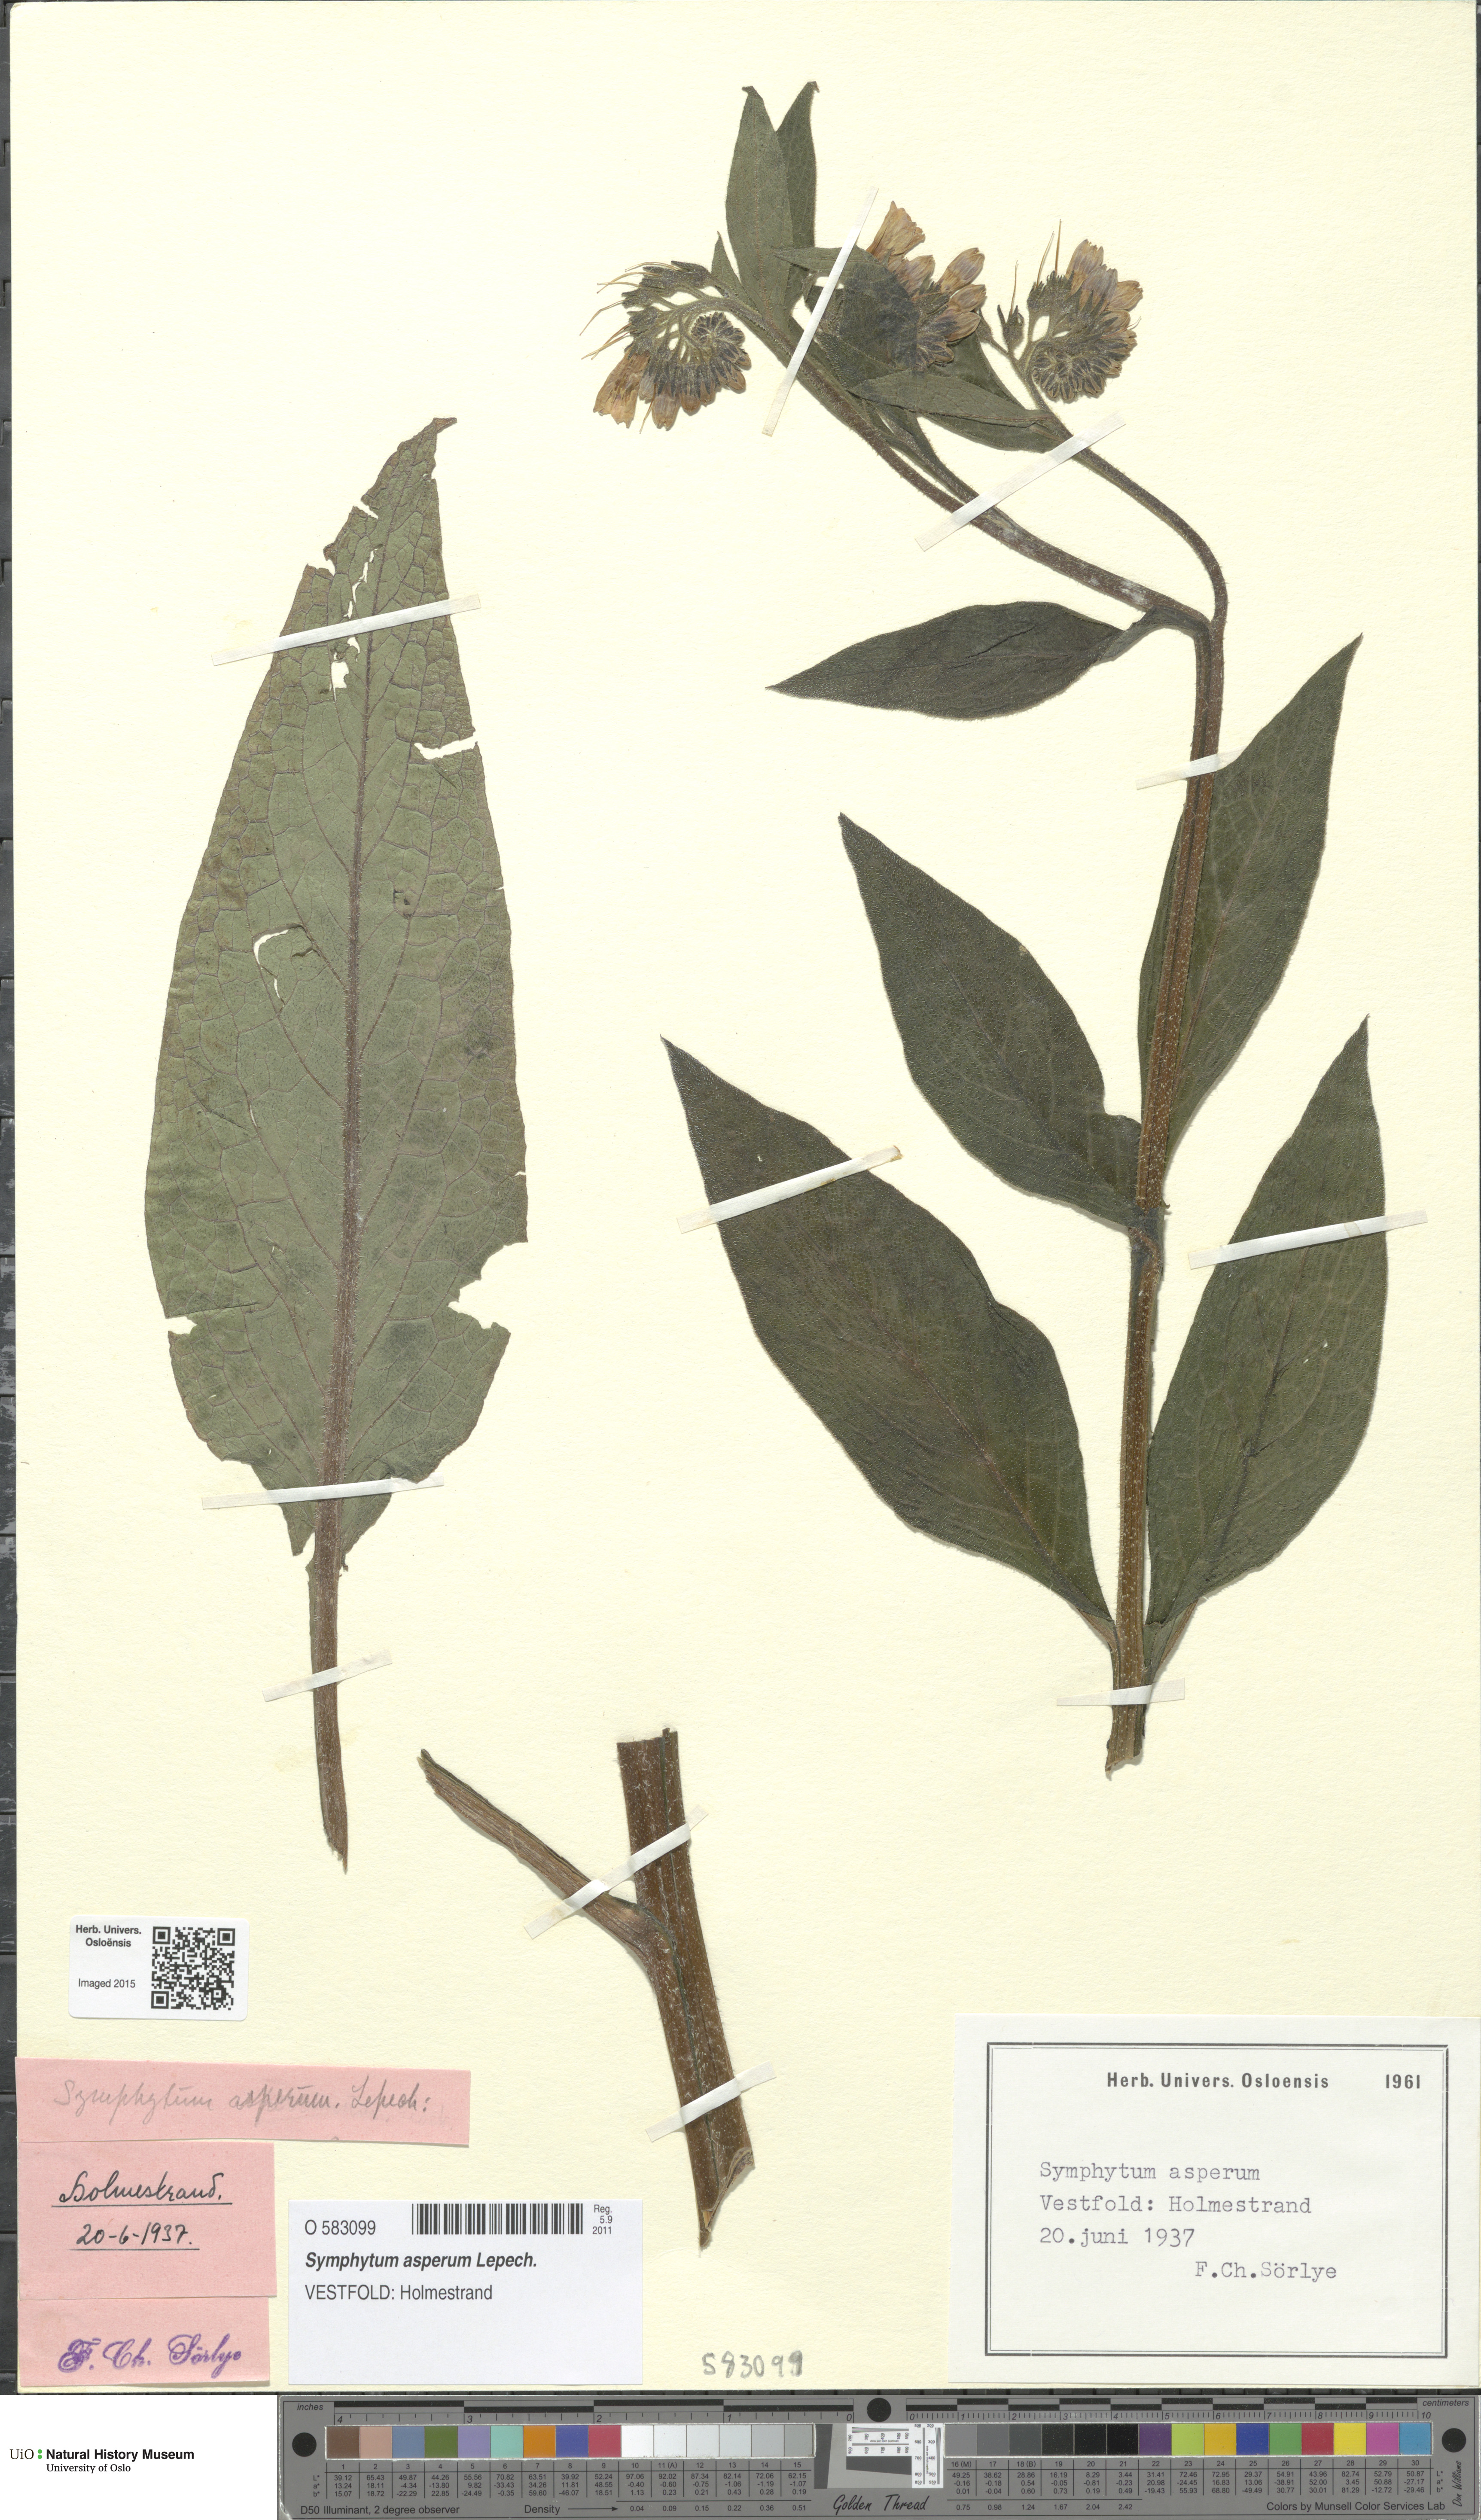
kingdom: Plantae
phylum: Tracheophyta
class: Magnoliopsida
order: Boraginales
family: Boraginaceae
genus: Symphytum
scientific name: Symphytum uplandicum
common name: Russian comfrey
